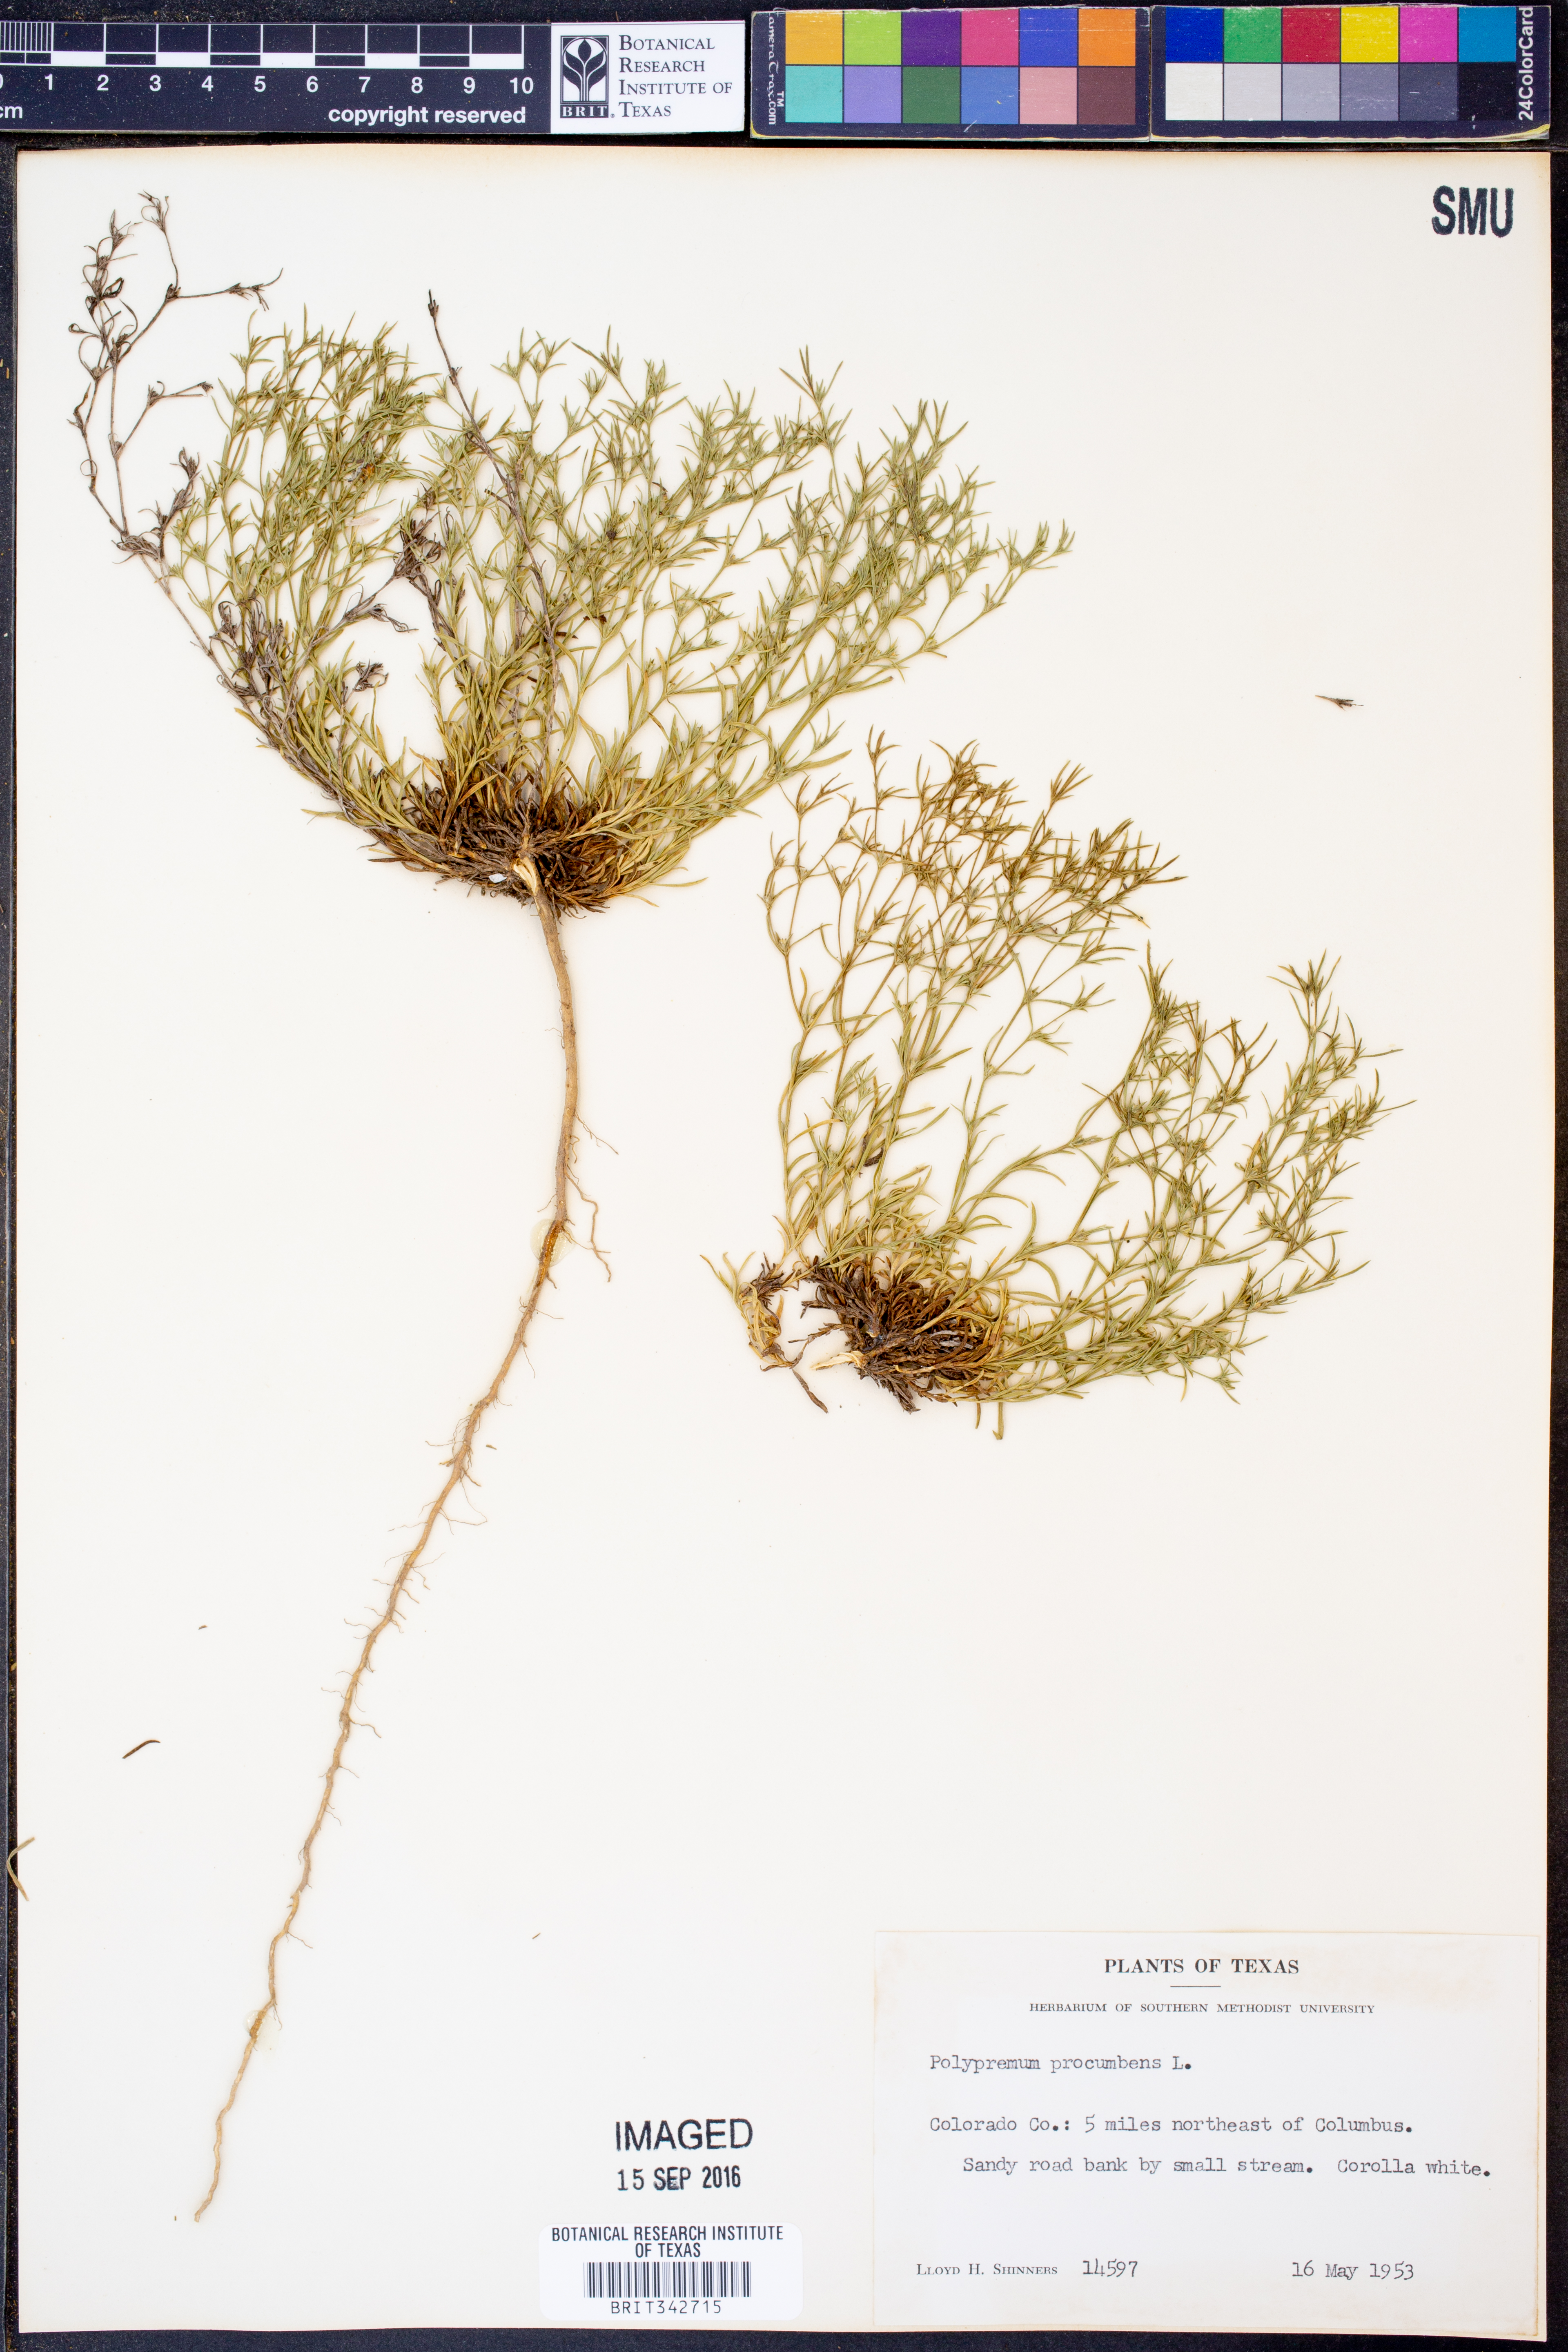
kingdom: Plantae
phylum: Tracheophyta
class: Magnoliopsida
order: Lamiales
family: Tetrachondraceae
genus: Polypremum
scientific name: Polypremum procumbens
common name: Juniper-leaf
